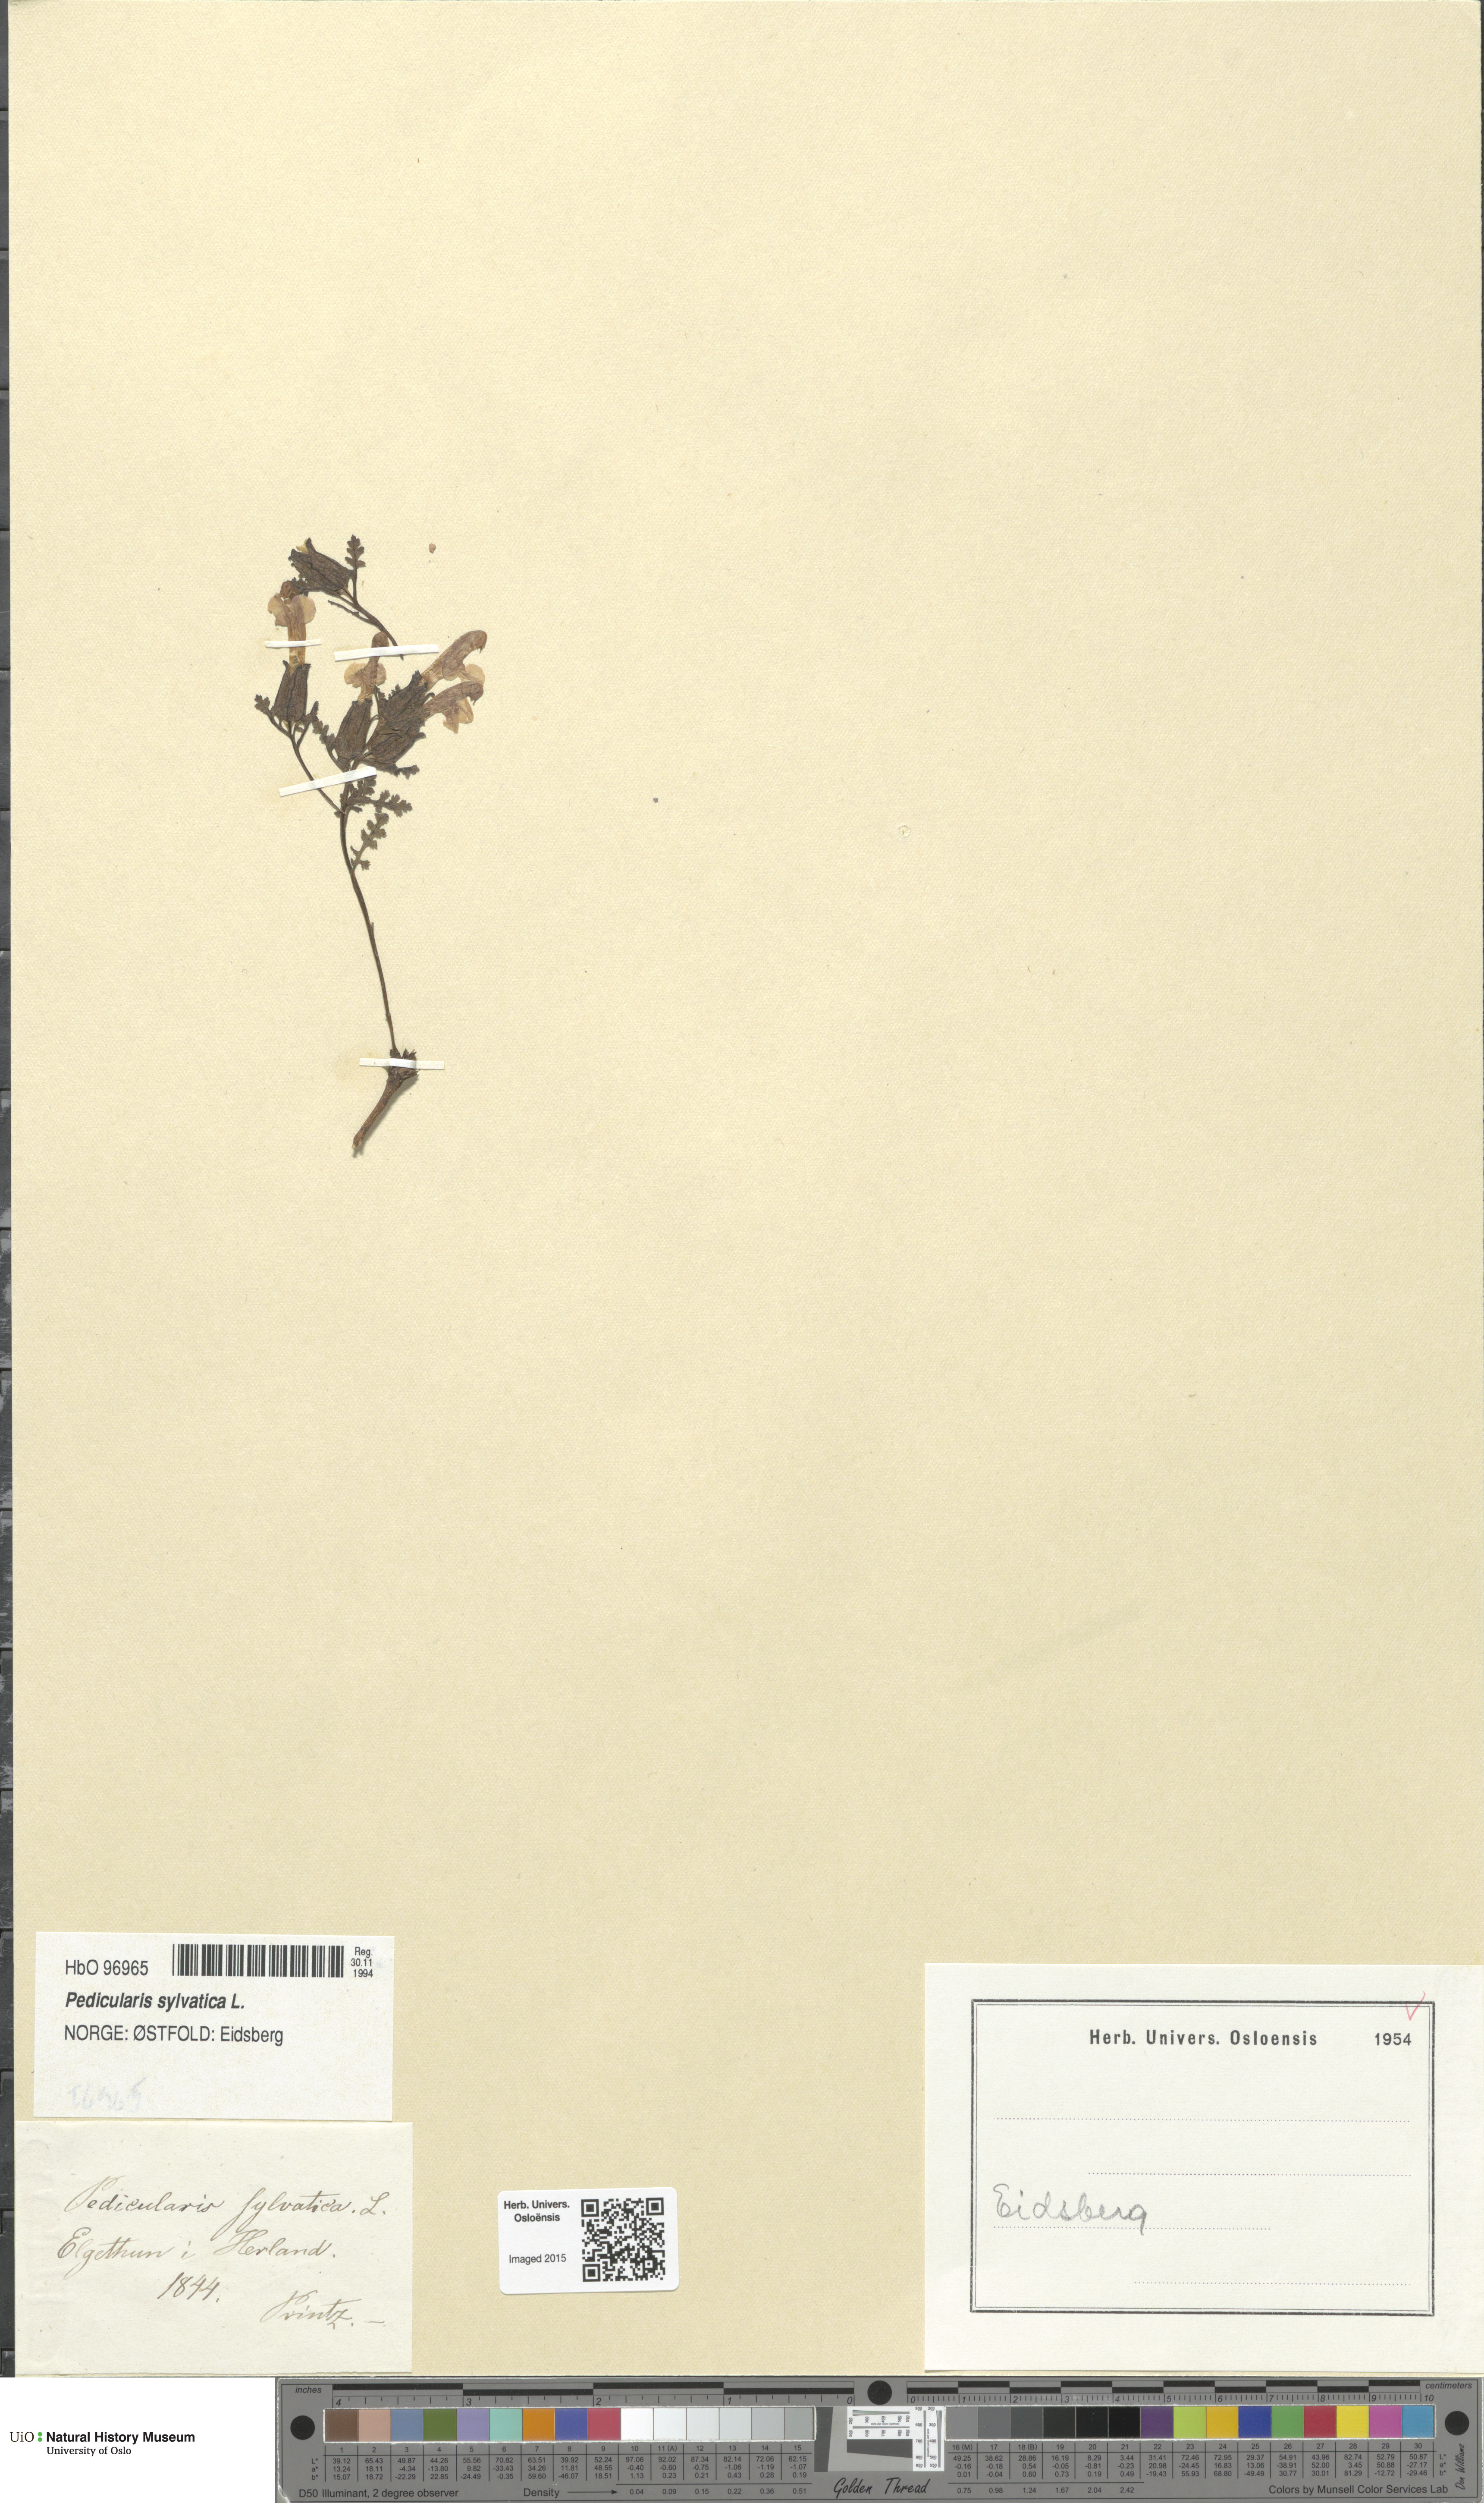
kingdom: Plantae
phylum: Tracheophyta
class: Magnoliopsida
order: Lamiales
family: Orobanchaceae
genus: Pedicularis
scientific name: Pedicularis sylvatica
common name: Lousewort
